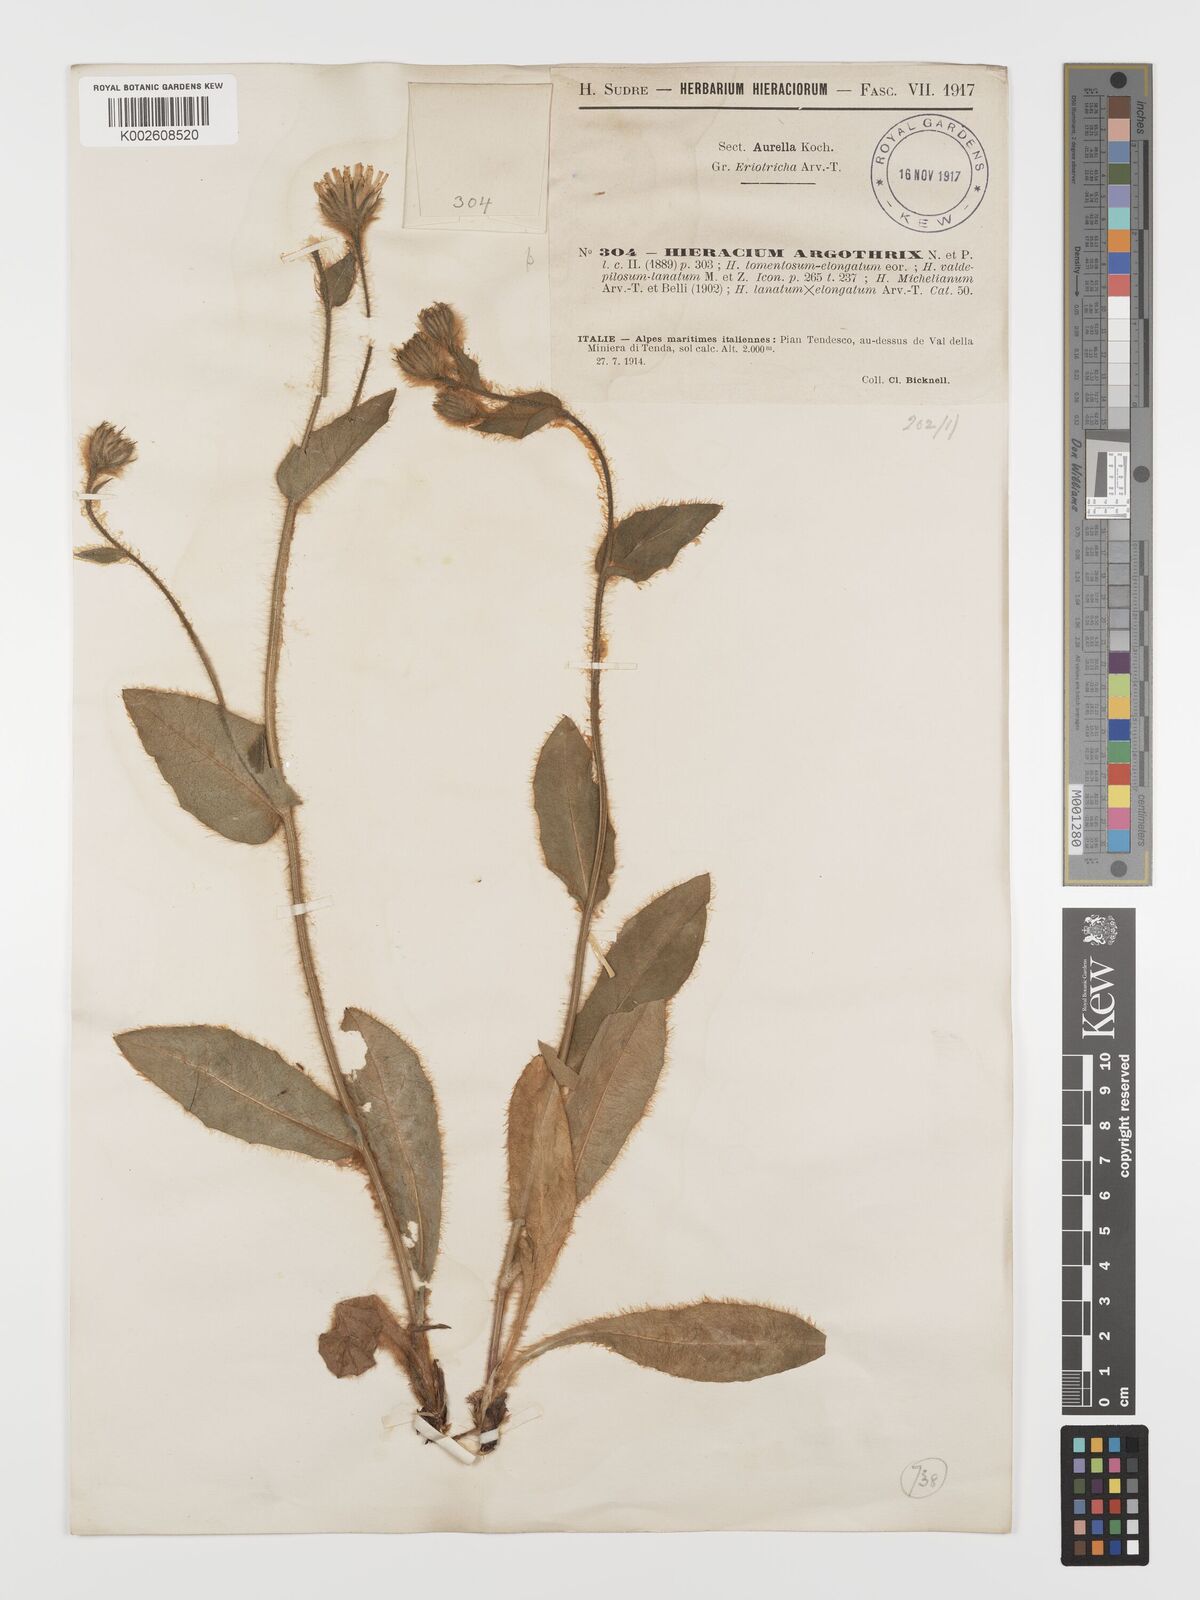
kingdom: Plantae
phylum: Tracheophyta
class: Magnoliopsida
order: Asterales
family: Asteraceae
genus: Hieracium
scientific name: Hieracium argothrix
